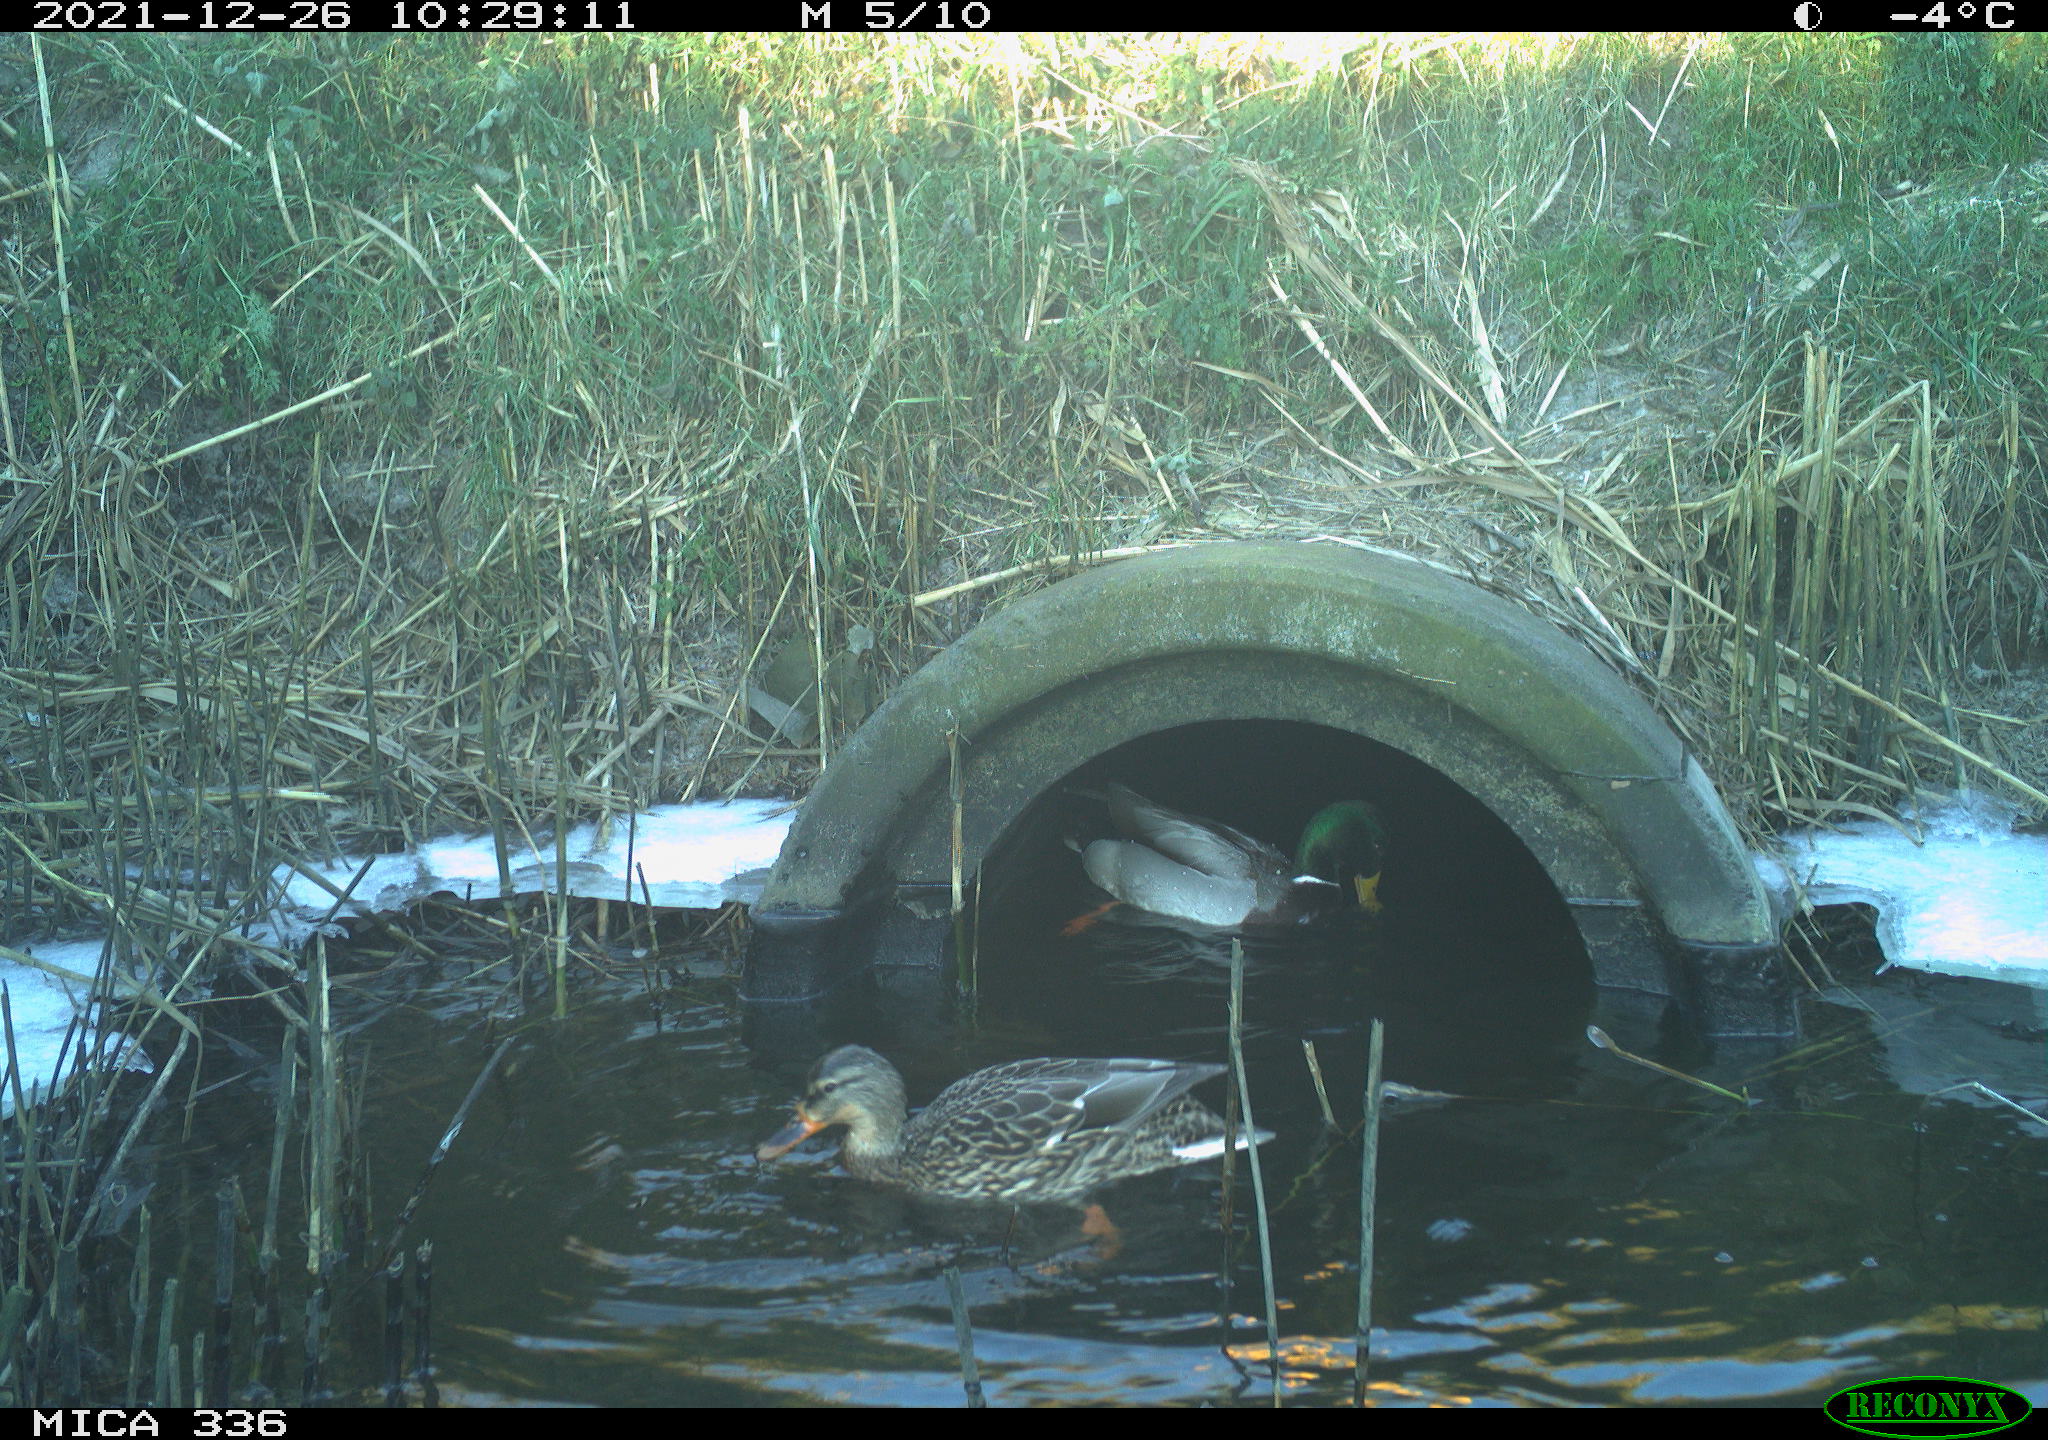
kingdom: Animalia
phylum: Chordata
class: Aves
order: Anseriformes
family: Anatidae
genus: Anas
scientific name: Anas platyrhynchos
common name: Mallard
